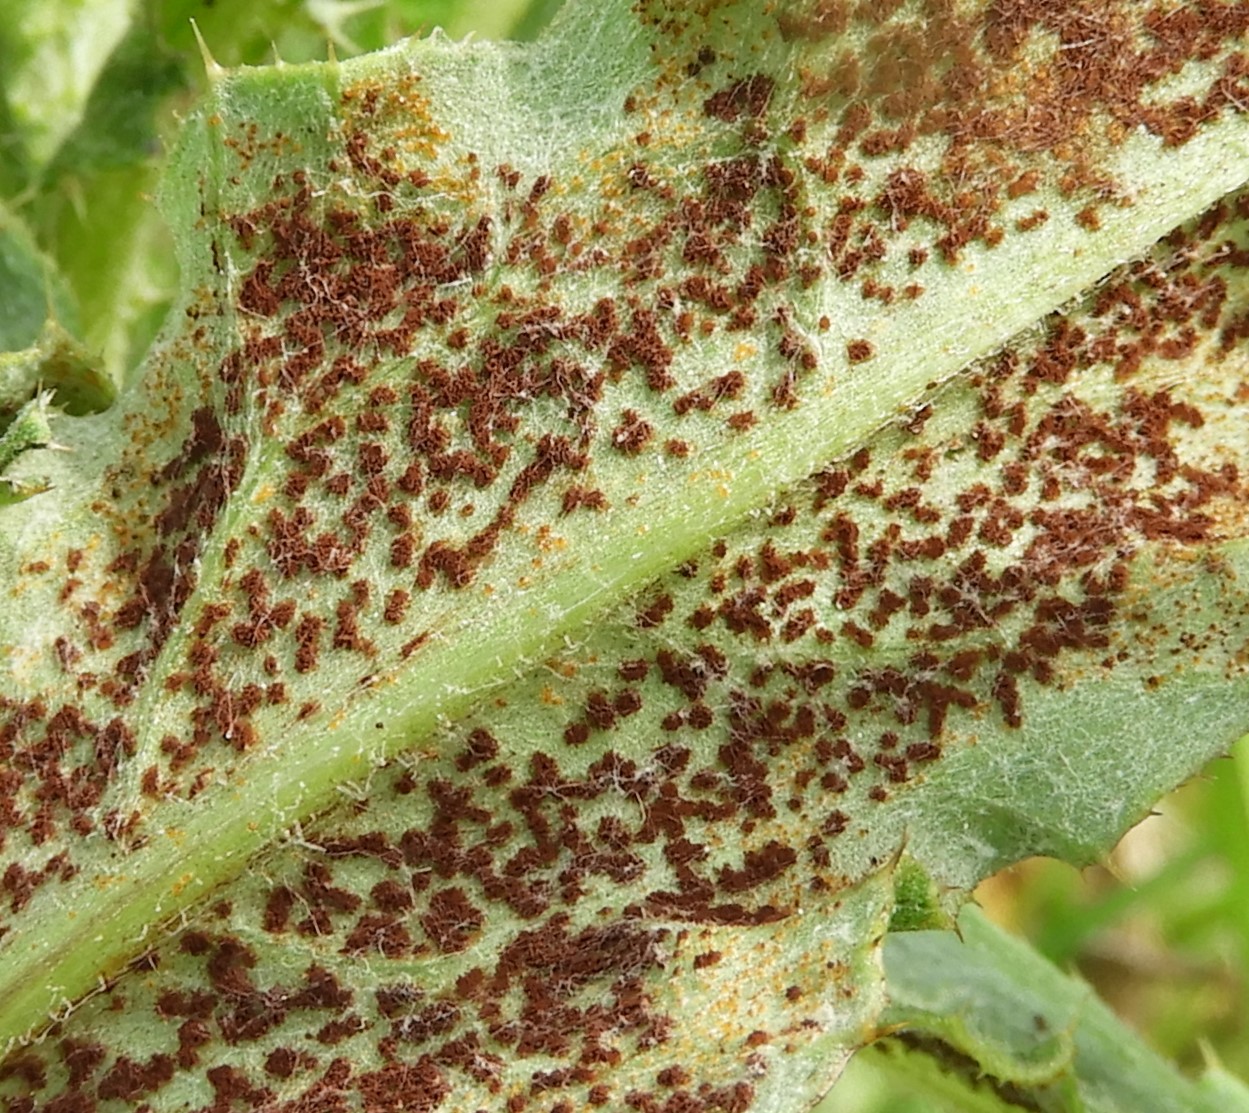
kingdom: Fungi
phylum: Basidiomycota
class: Pucciniomycetes
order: Pucciniales
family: Pucciniaceae
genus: Puccinia
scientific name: Puccinia suaveolens
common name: tidsel-tvecellerust
